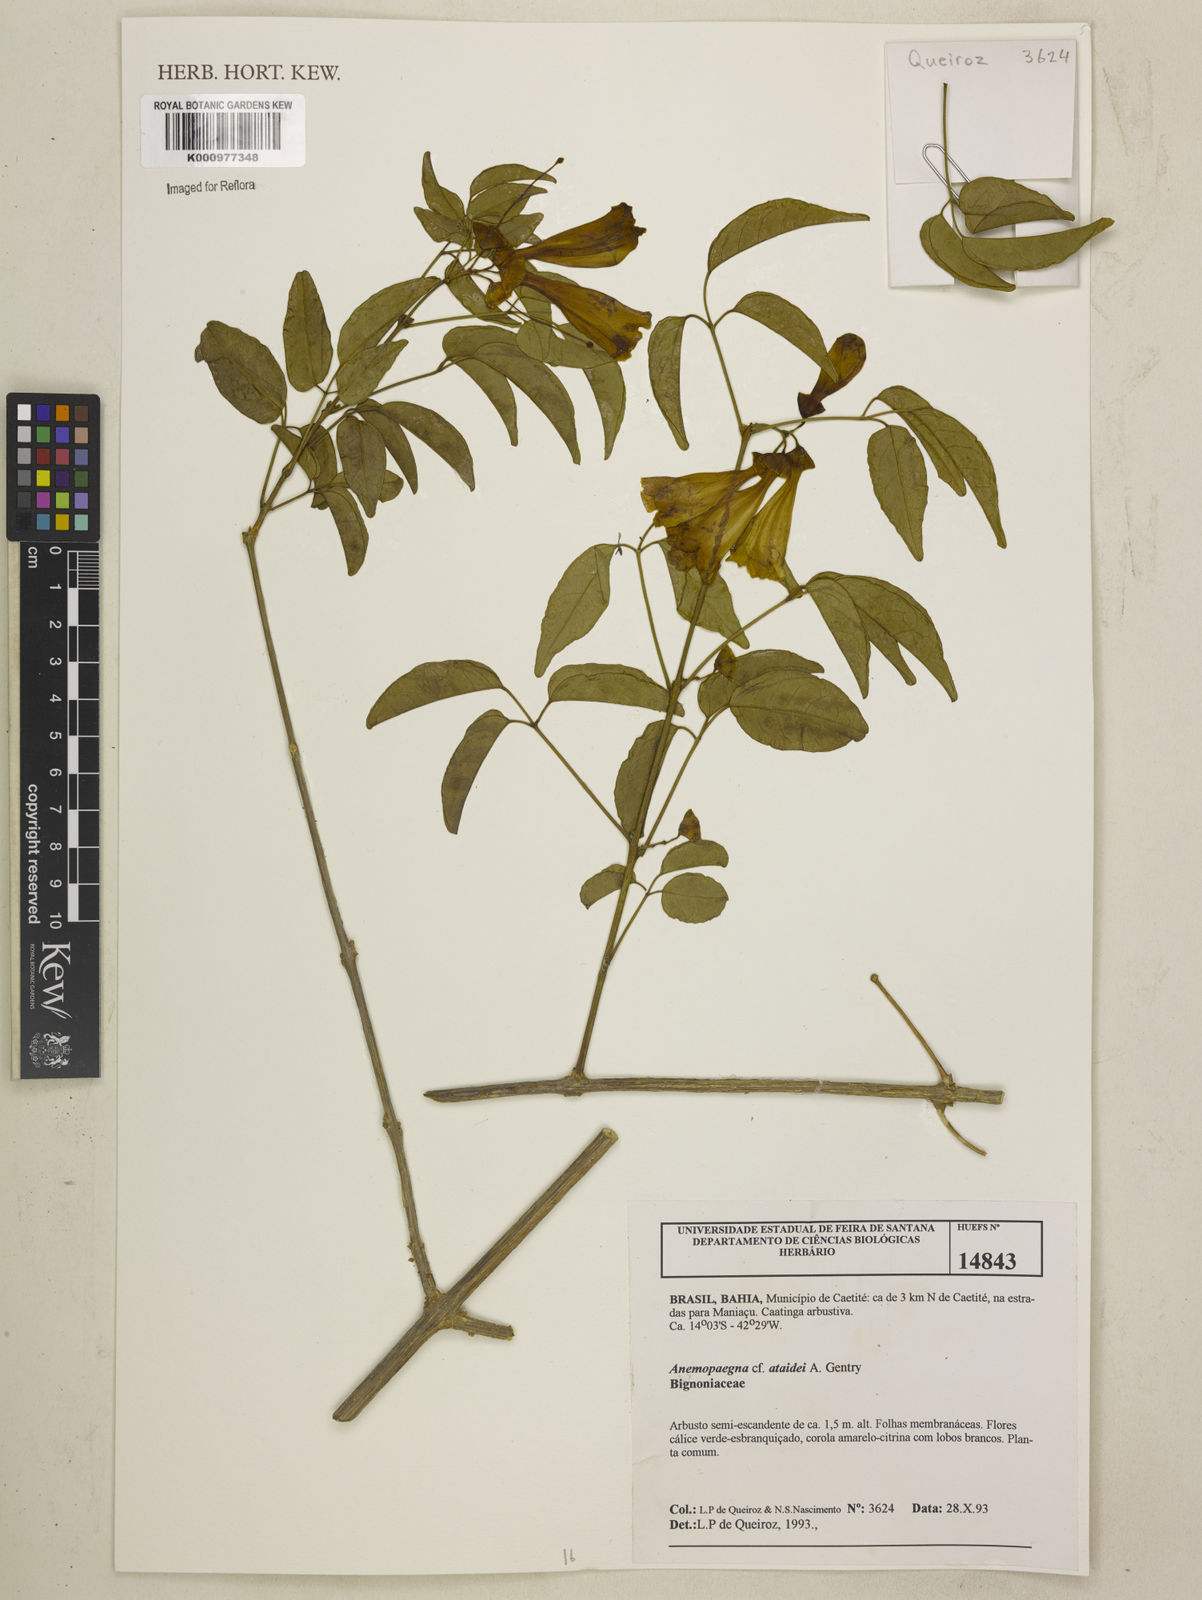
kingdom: Plantae
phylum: Tracheophyta
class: Magnoliopsida
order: Lamiales
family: Bignoniaceae
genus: Anemopaegma
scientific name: Anemopaegma gracile
